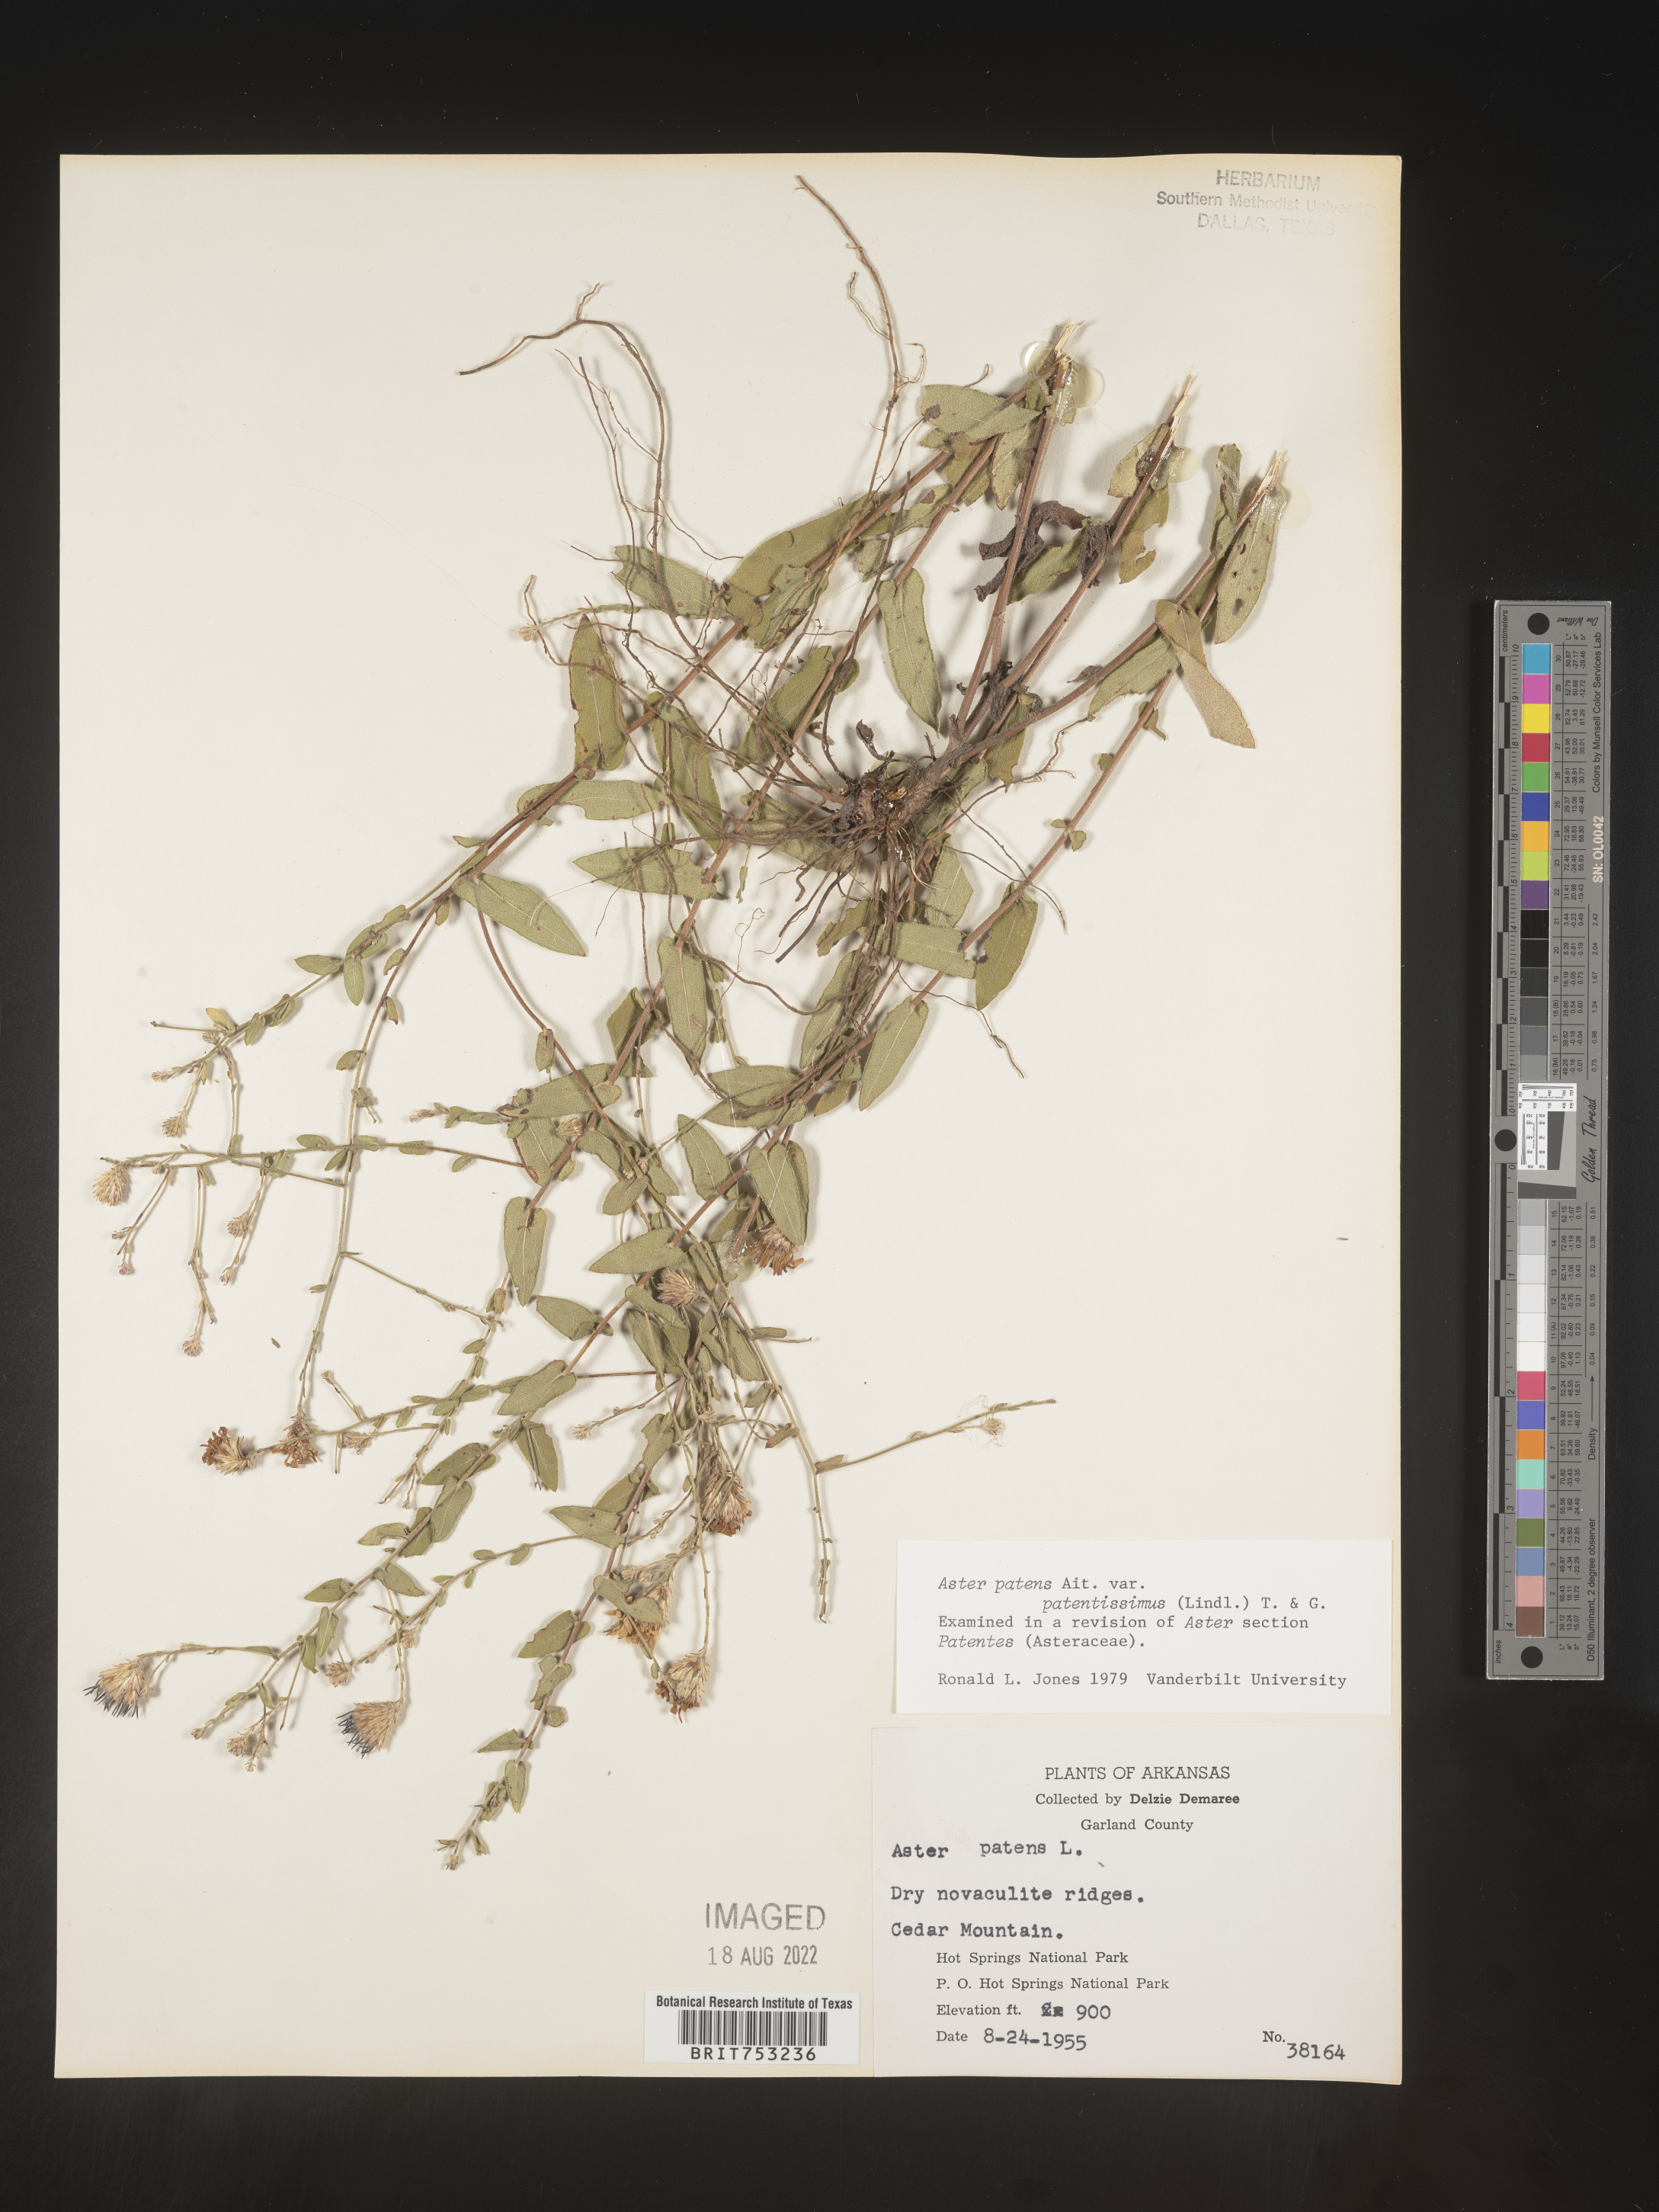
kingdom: Plantae
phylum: Tracheophyta
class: Magnoliopsida
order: Asterales
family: Asteraceae
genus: Symphyotrichum
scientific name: Symphyotrichum patens
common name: Late purple aster
